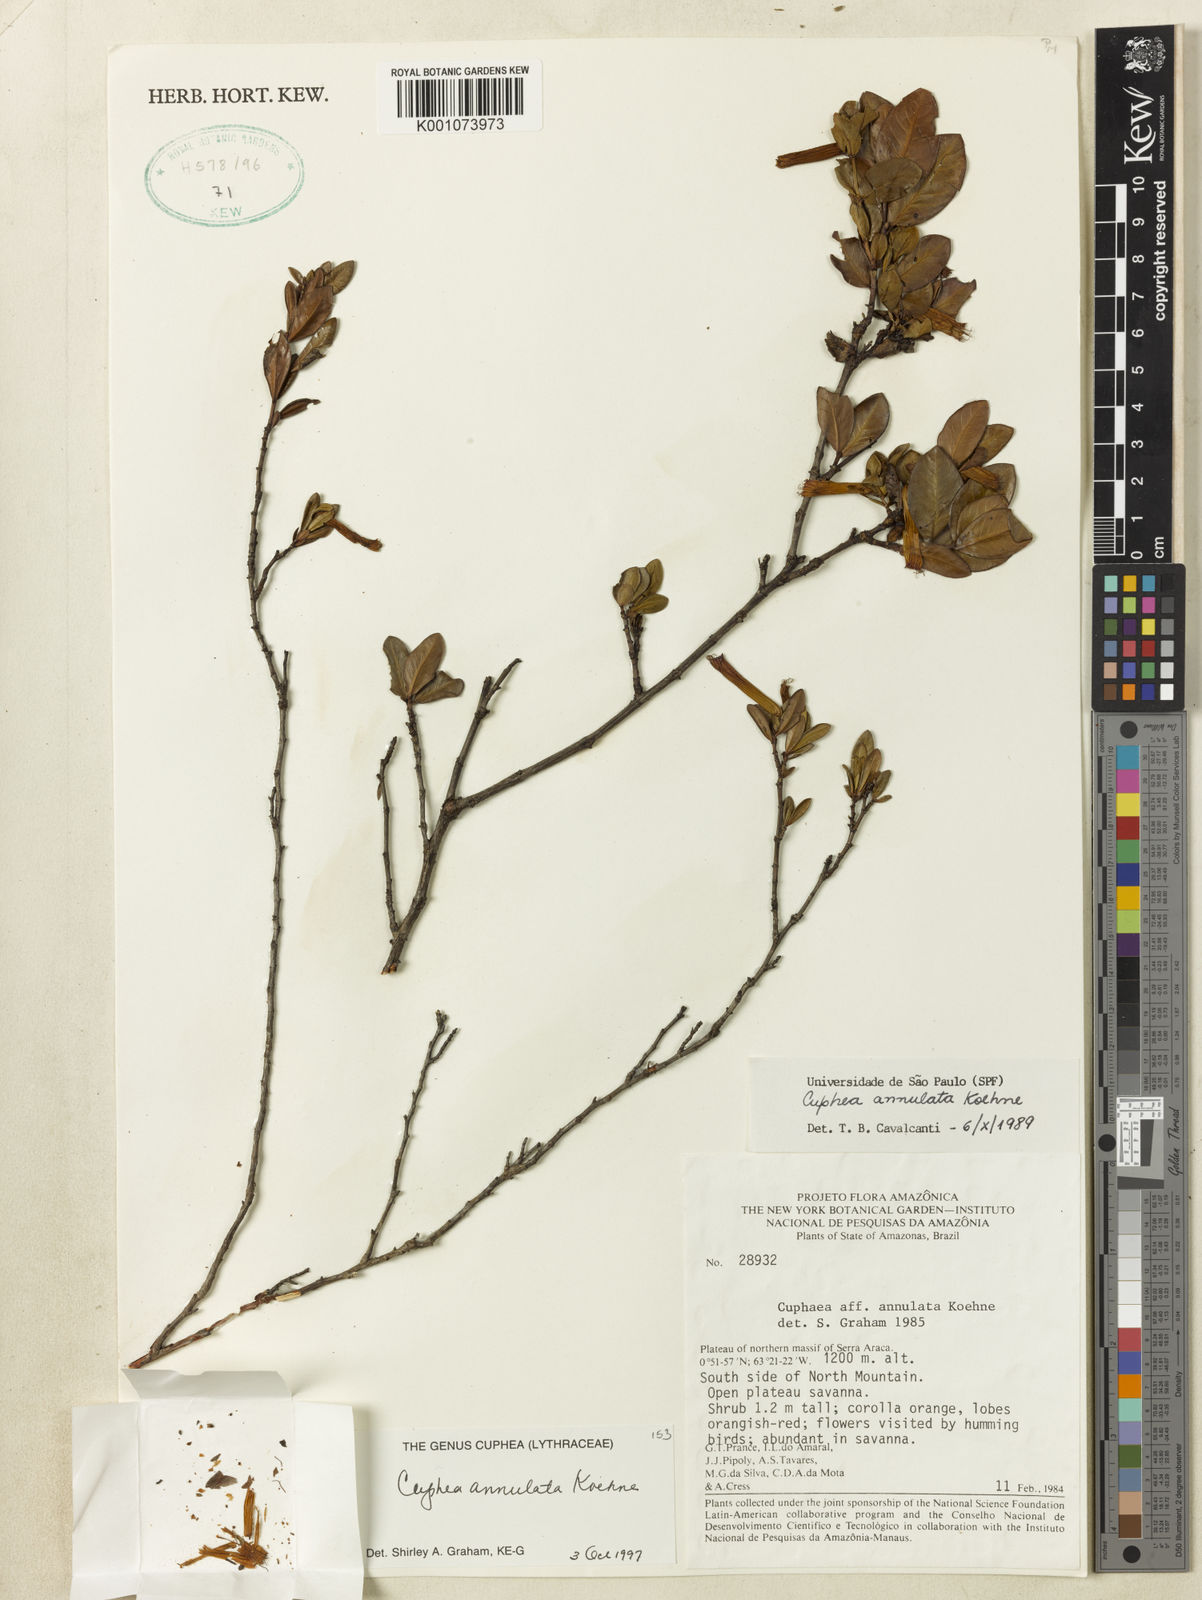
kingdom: Plantae
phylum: Tracheophyta
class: Magnoliopsida
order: Myrtales
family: Lythraceae
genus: Cuphea
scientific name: Cuphea annulata
